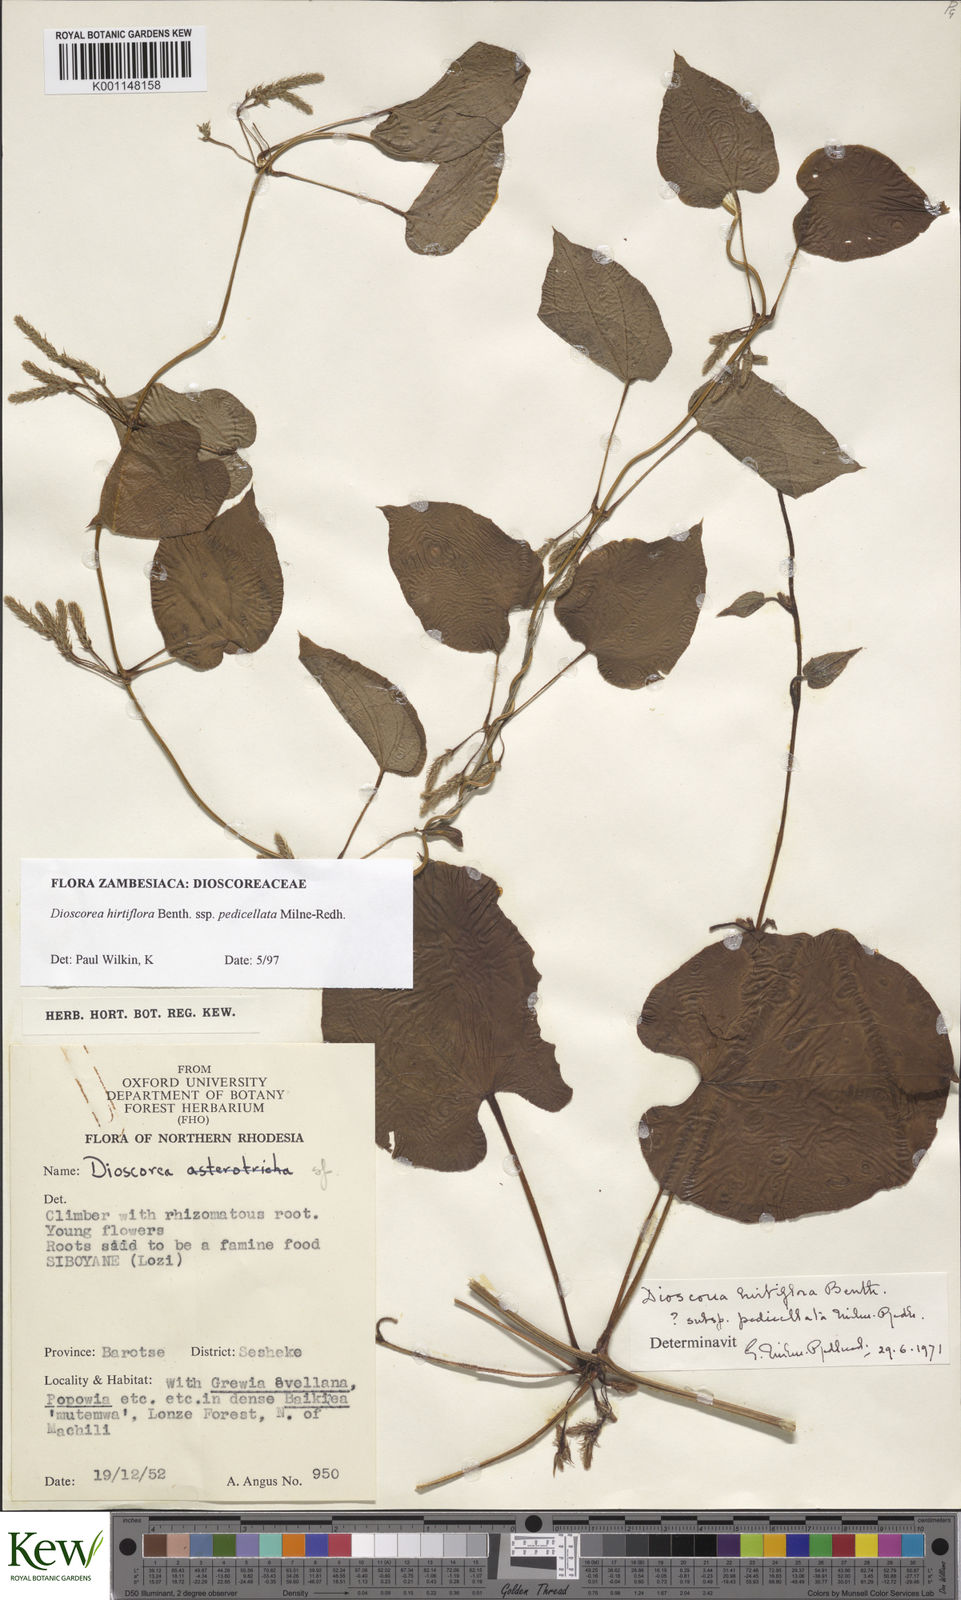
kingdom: Plantae
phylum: Tracheophyta
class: Liliopsida
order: Dioscoreales
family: Dioscoreaceae
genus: Dioscorea
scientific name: Dioscorea hirtiflora
